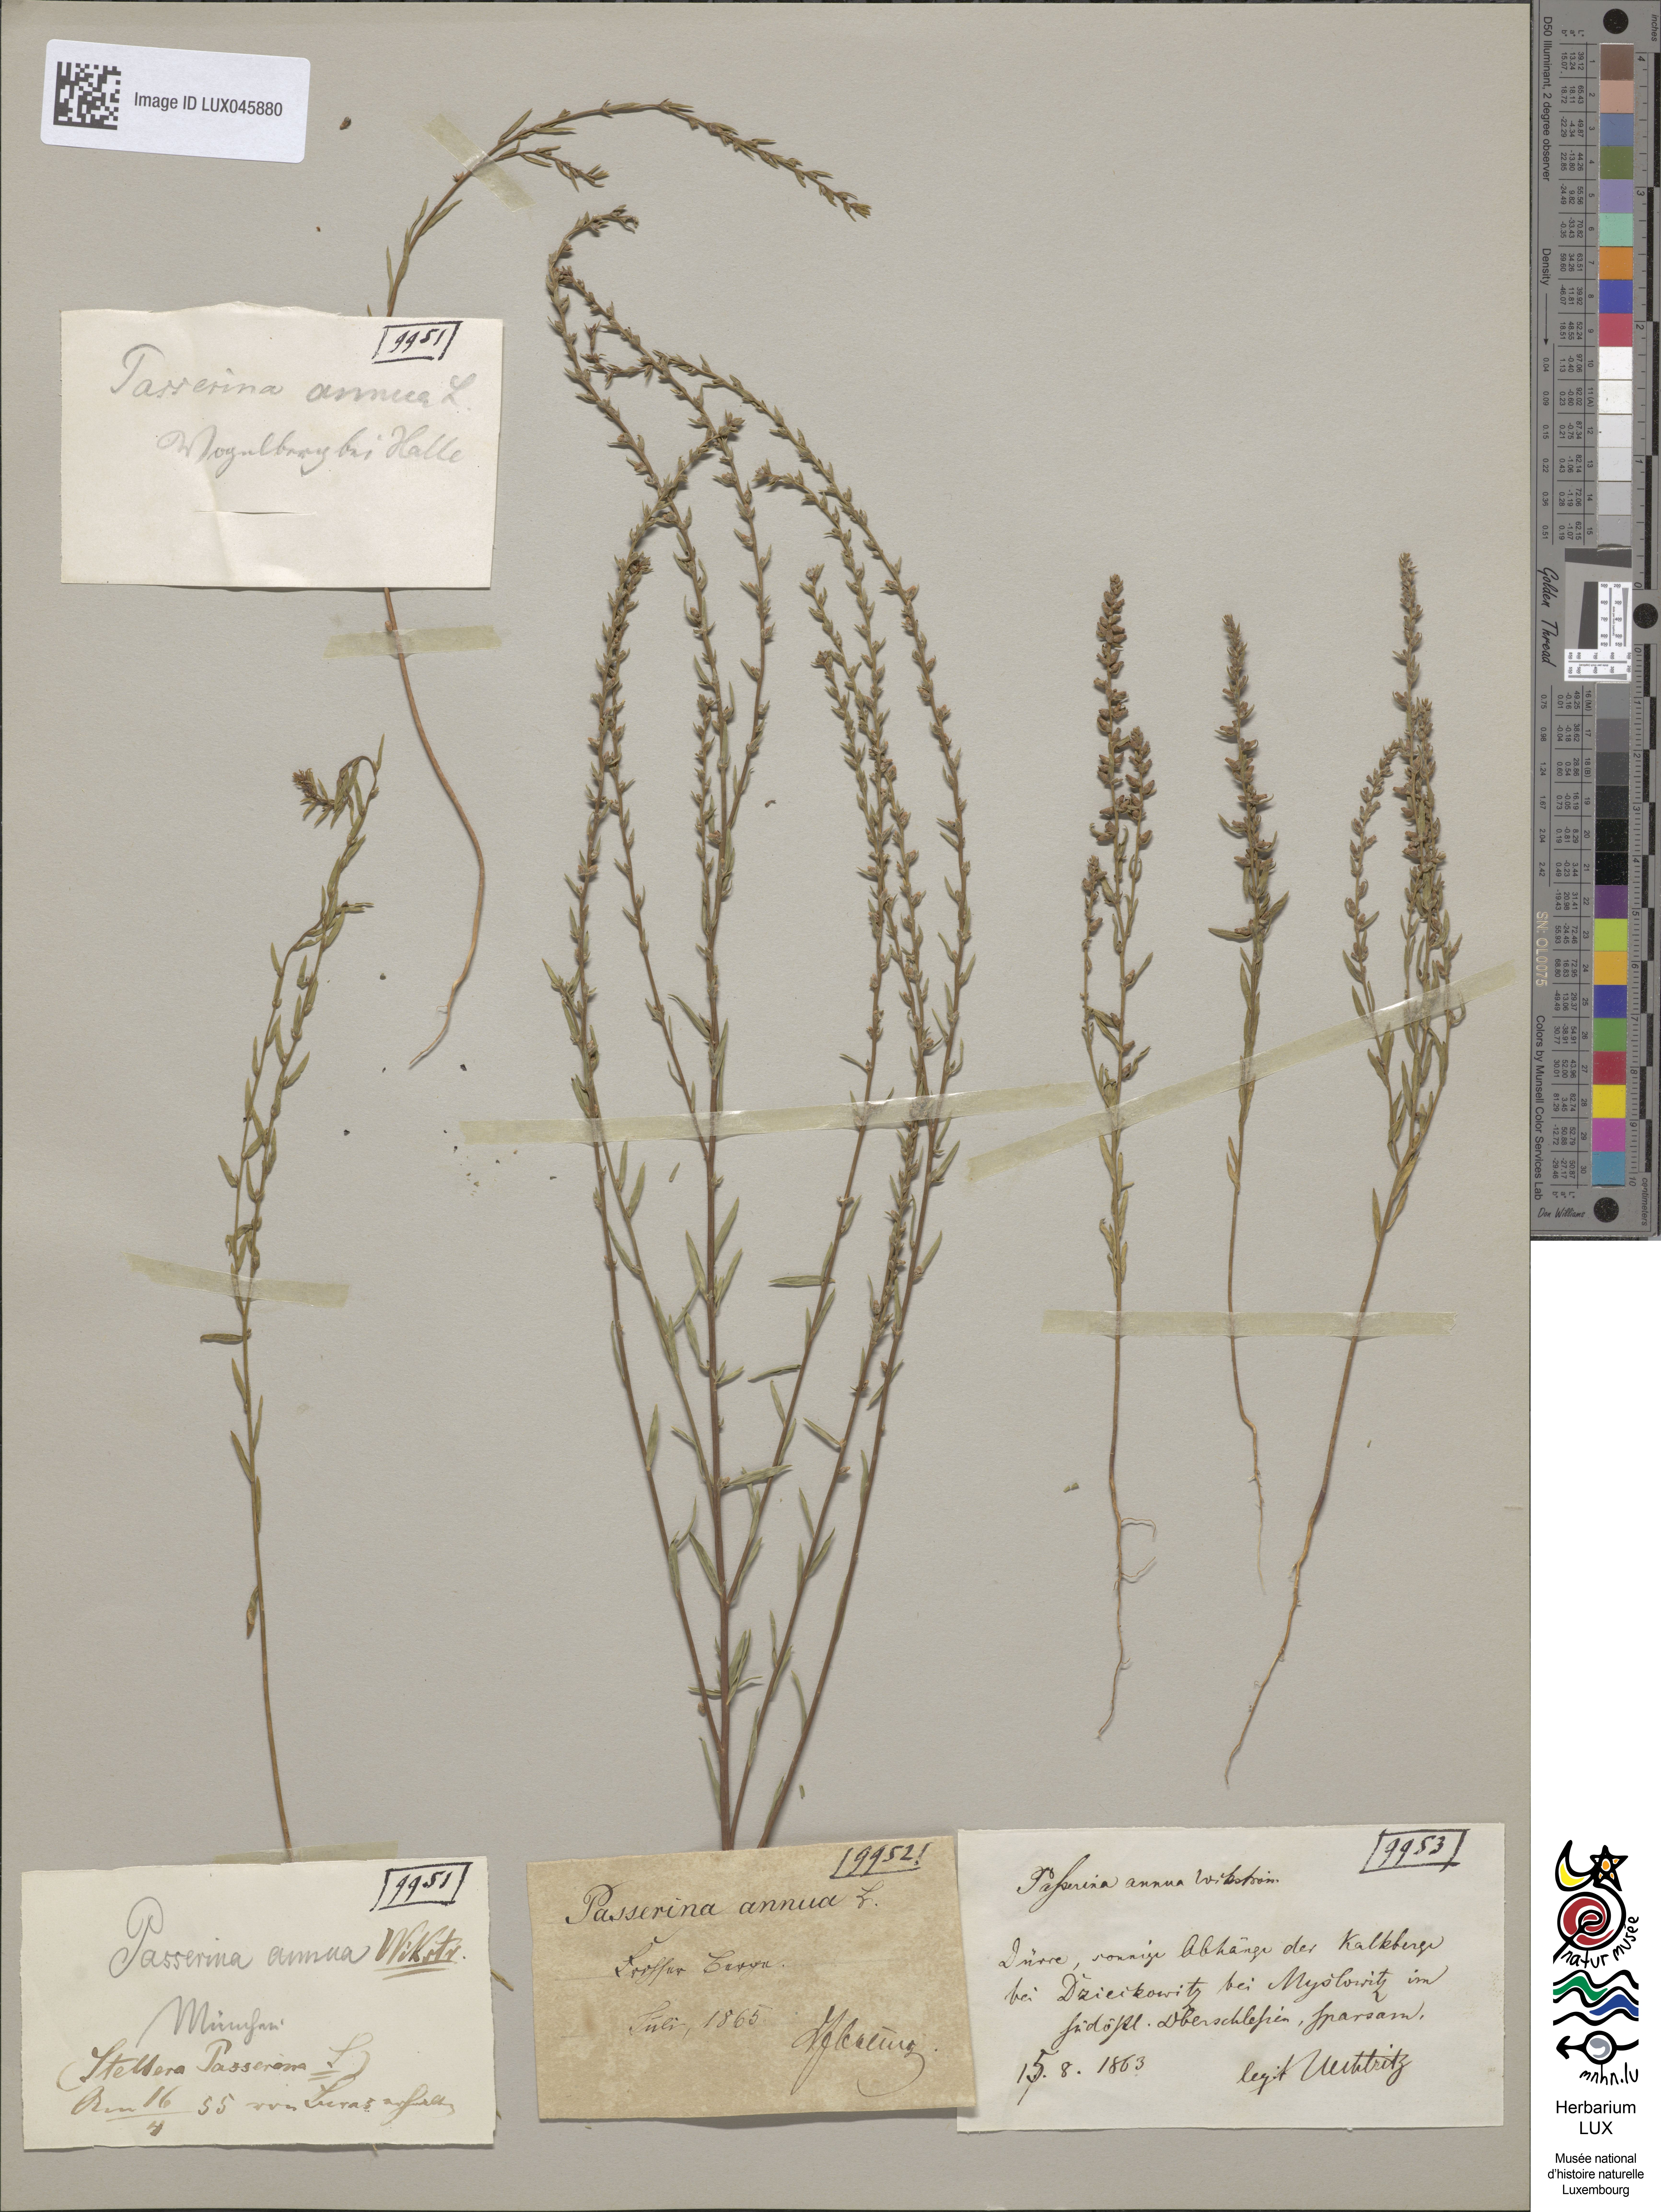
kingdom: Plantae
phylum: Tracheophyta
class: Magnoliopsida
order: Malvales
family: Thymelaeaceae
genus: Thymelaea
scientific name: Thymelaea passerina
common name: Annual thymelaea
